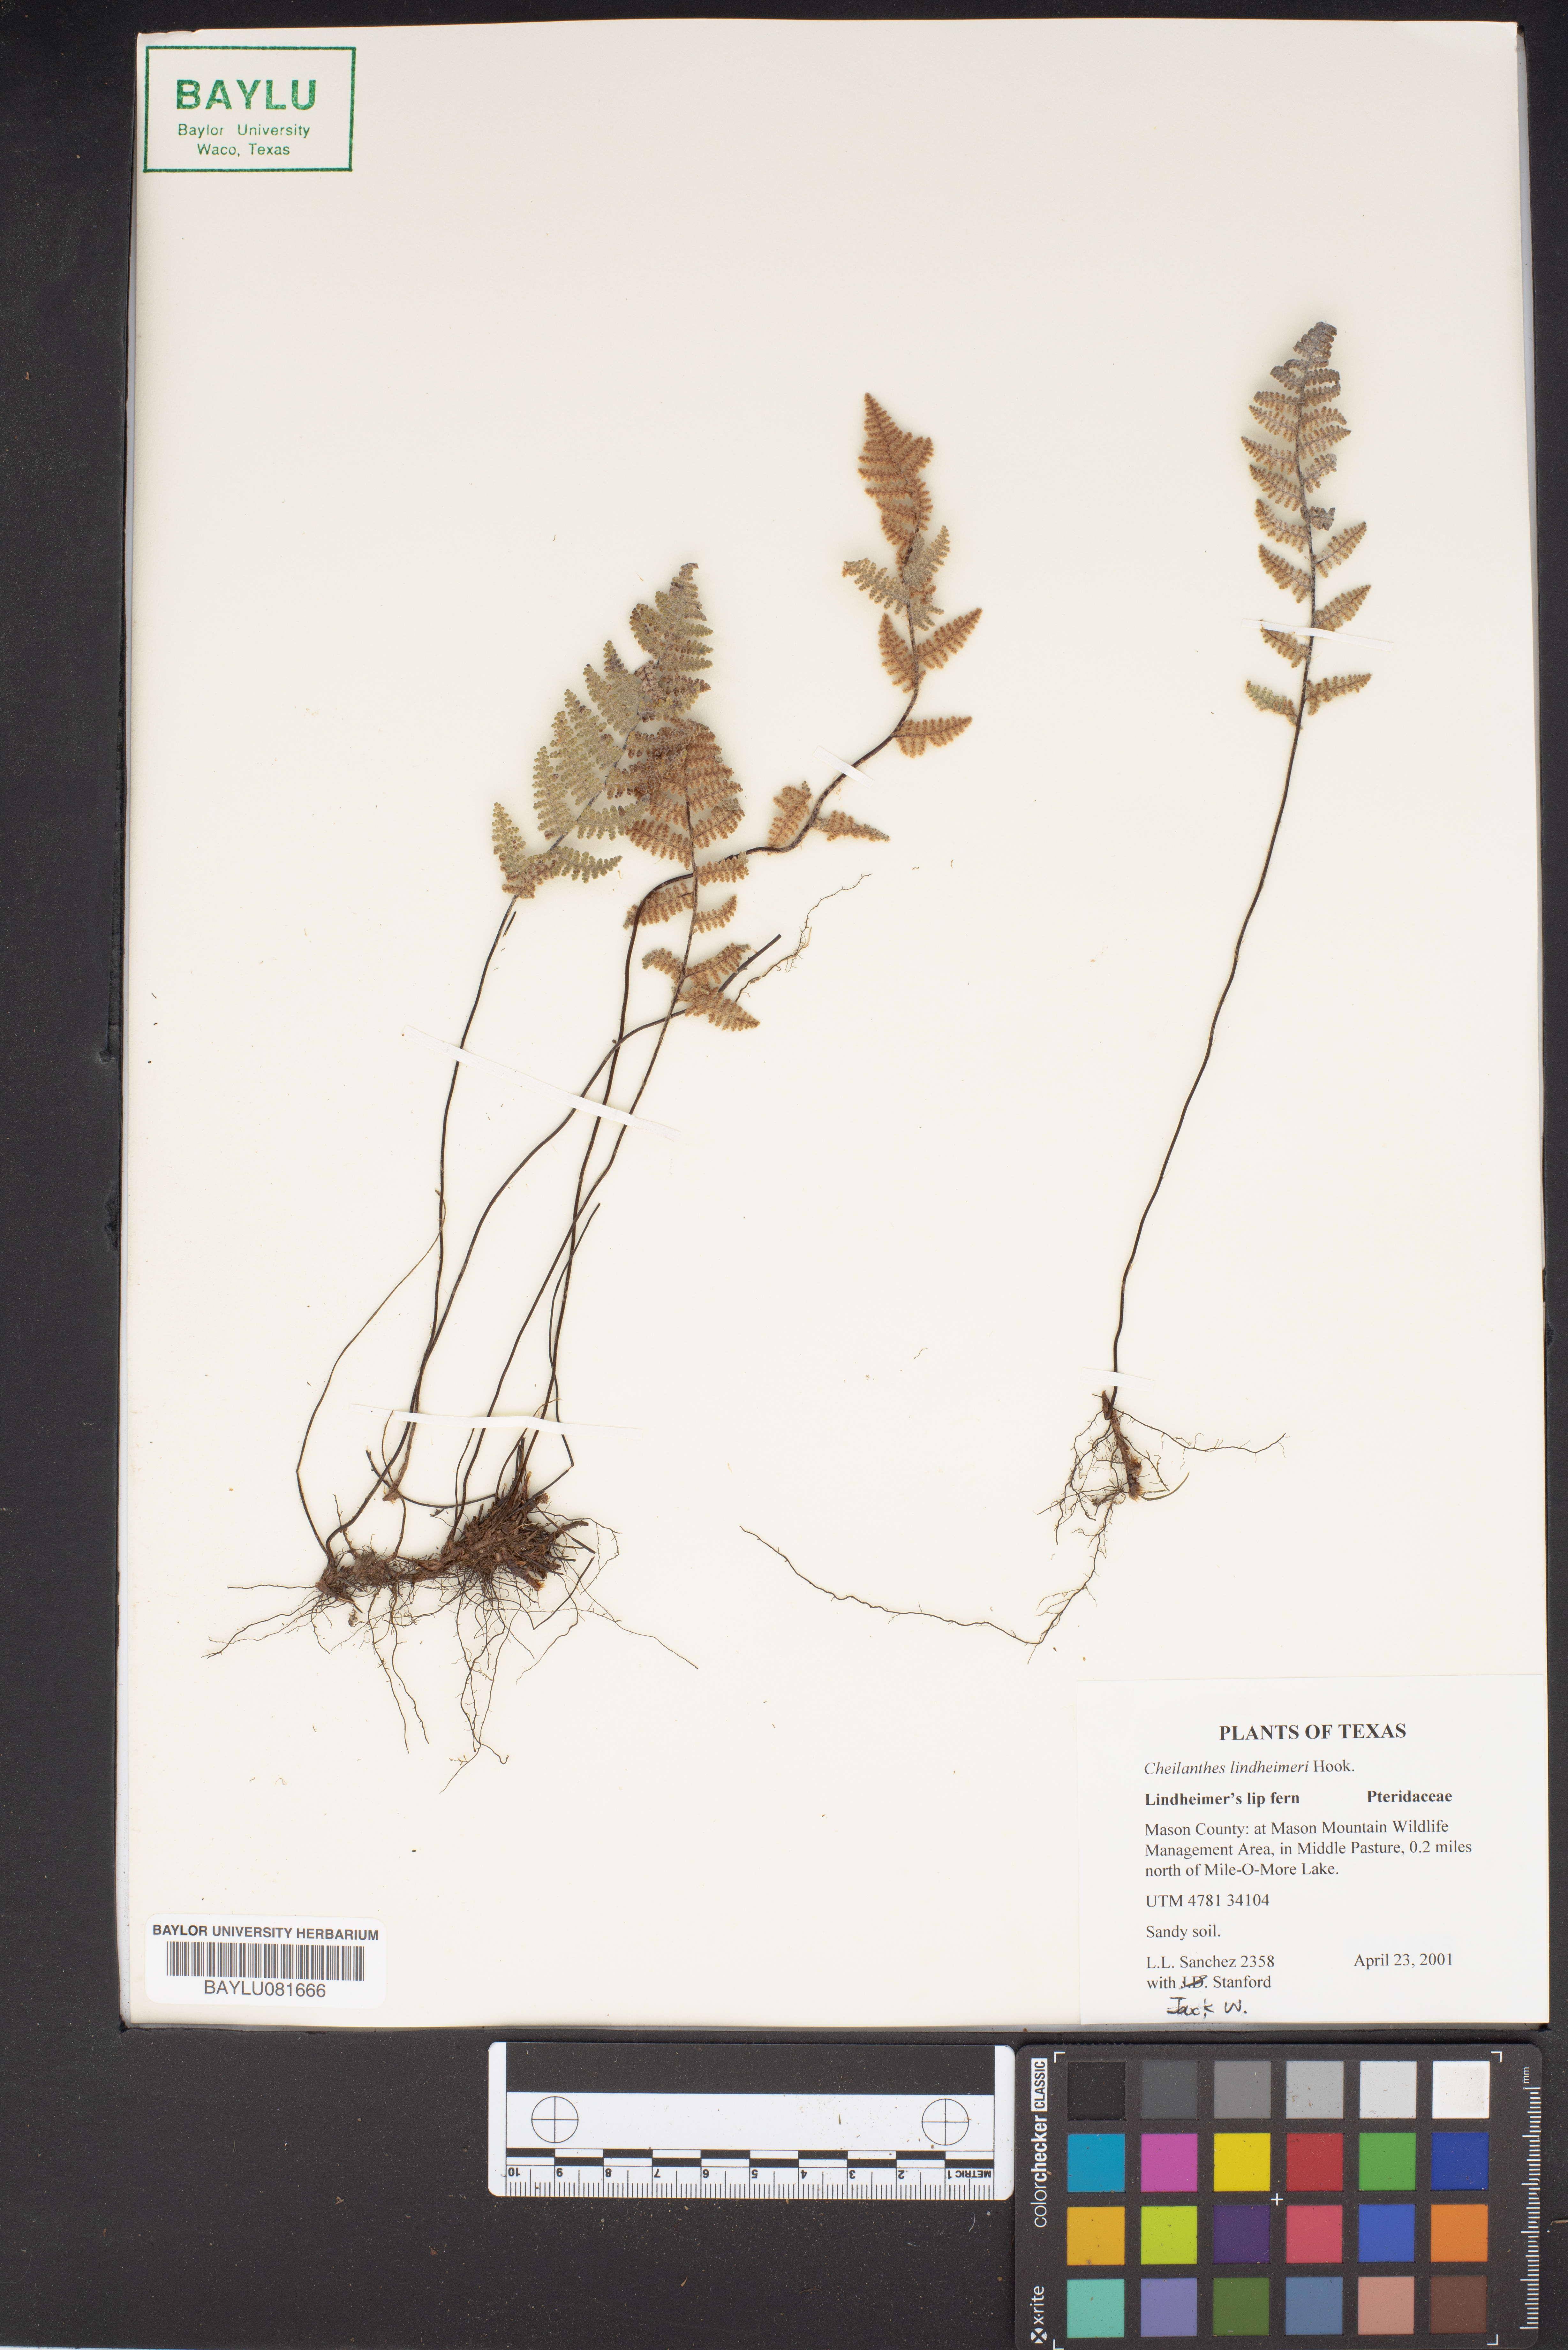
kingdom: Plantae
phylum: Tracheophyta
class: Polypodiopsida
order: Polypodiales
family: Pteridaceae
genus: Myriopteris
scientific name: Myriopteris lindheimeri
